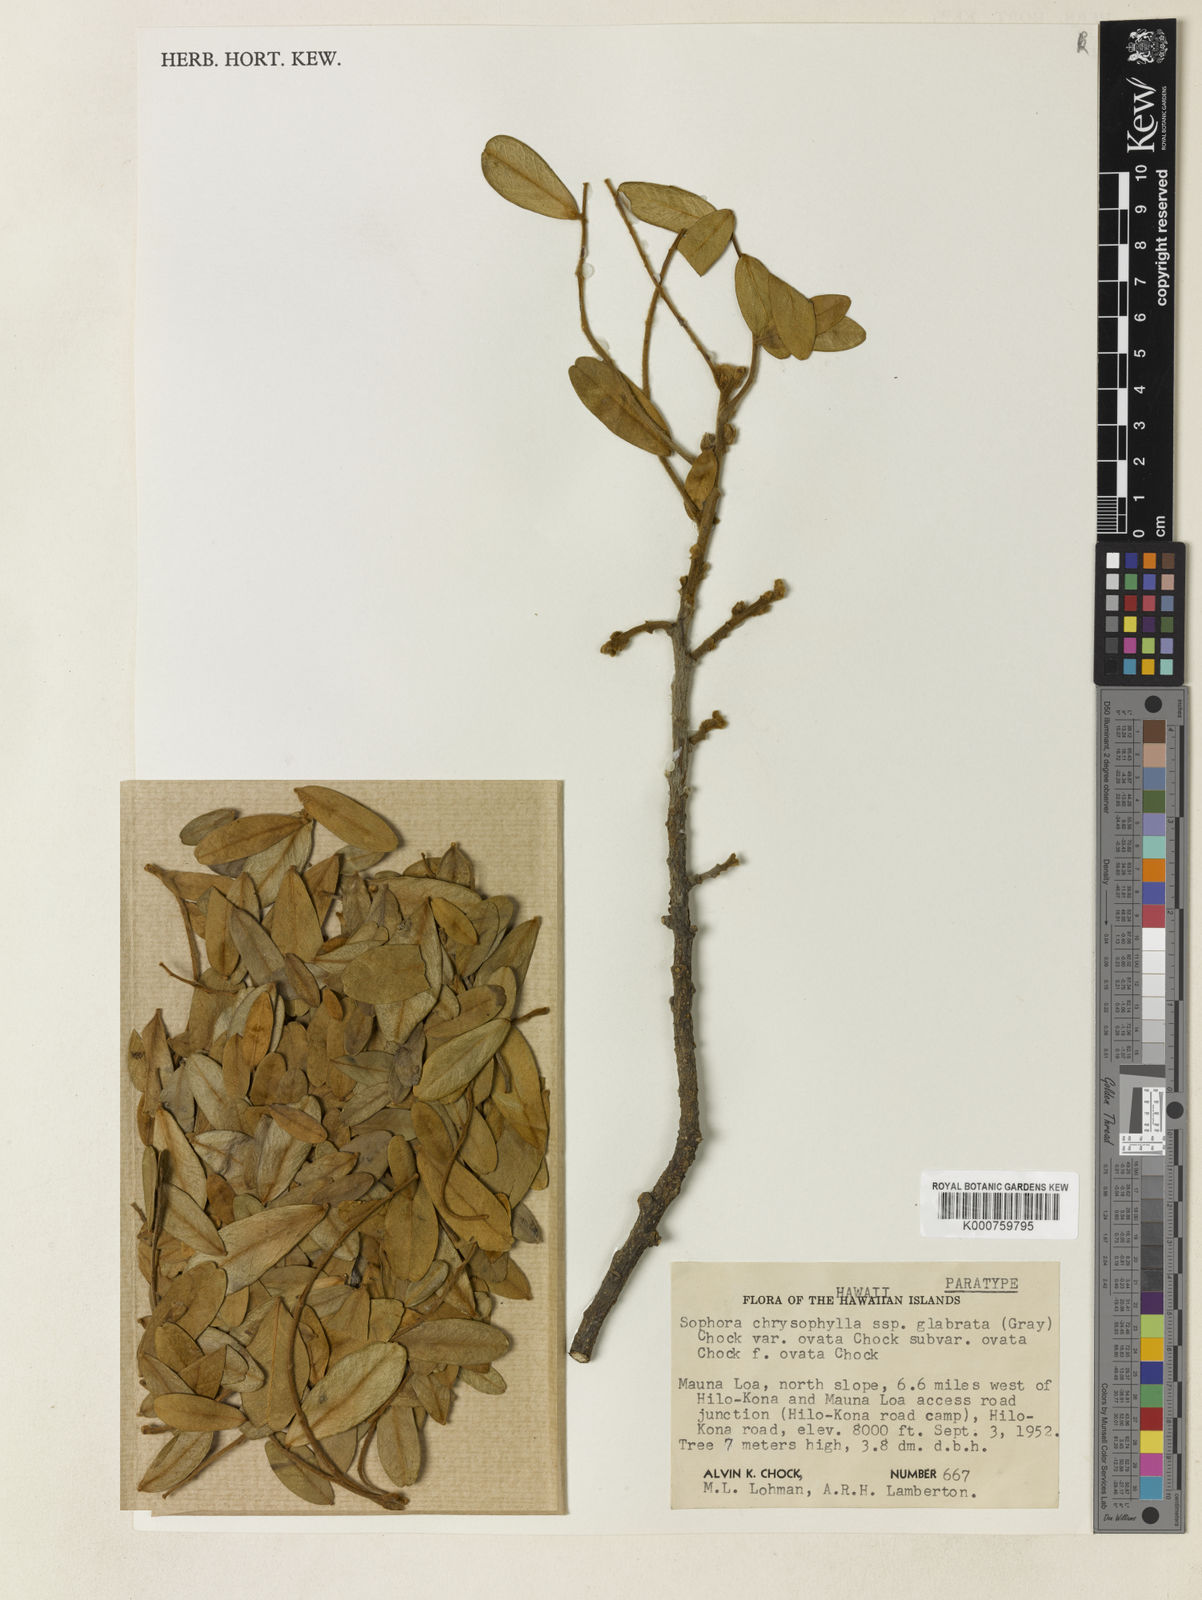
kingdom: Plantae
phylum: Tracheophyta
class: Magnoliopsida
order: Fabales
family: Fabaceae
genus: Sophora
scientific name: Sophora chrysophylla
